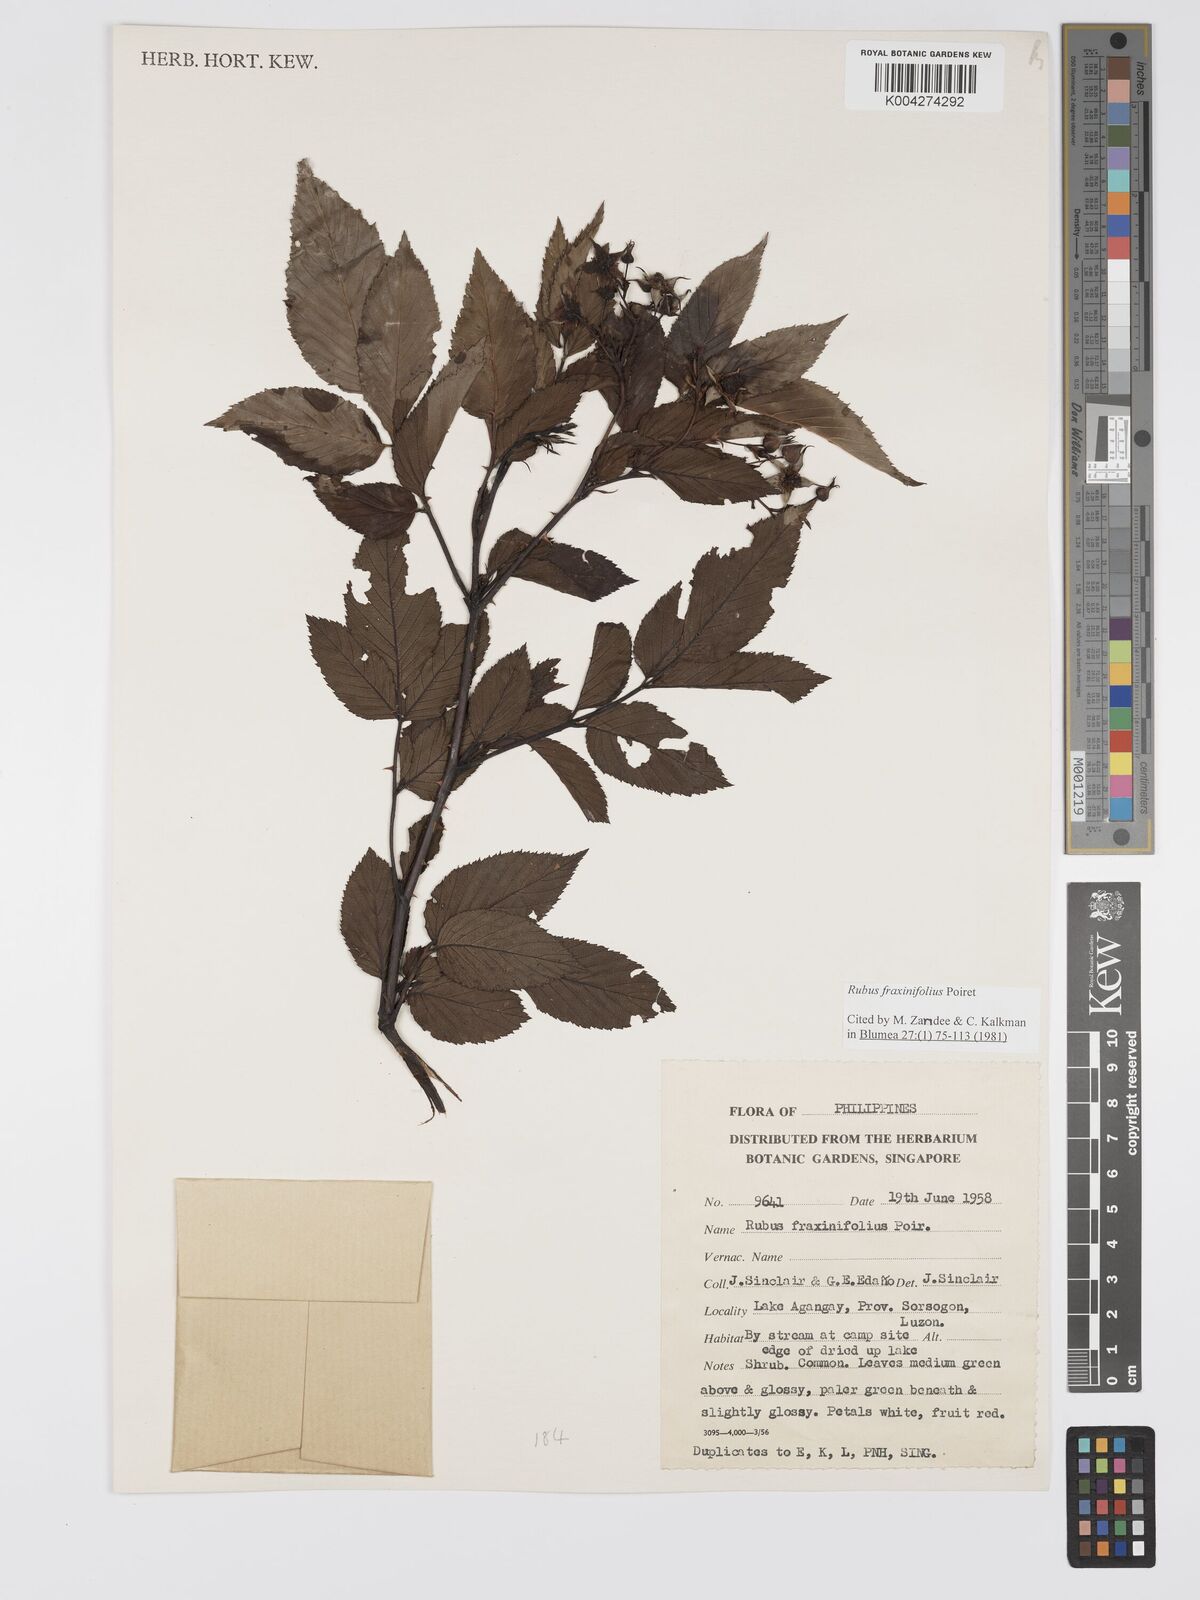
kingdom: Plantae
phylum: Tracheophyta
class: Magnoliopsida
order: Rosales
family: Rosaceae
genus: Rubus
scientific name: Rubus fraxinifolius
